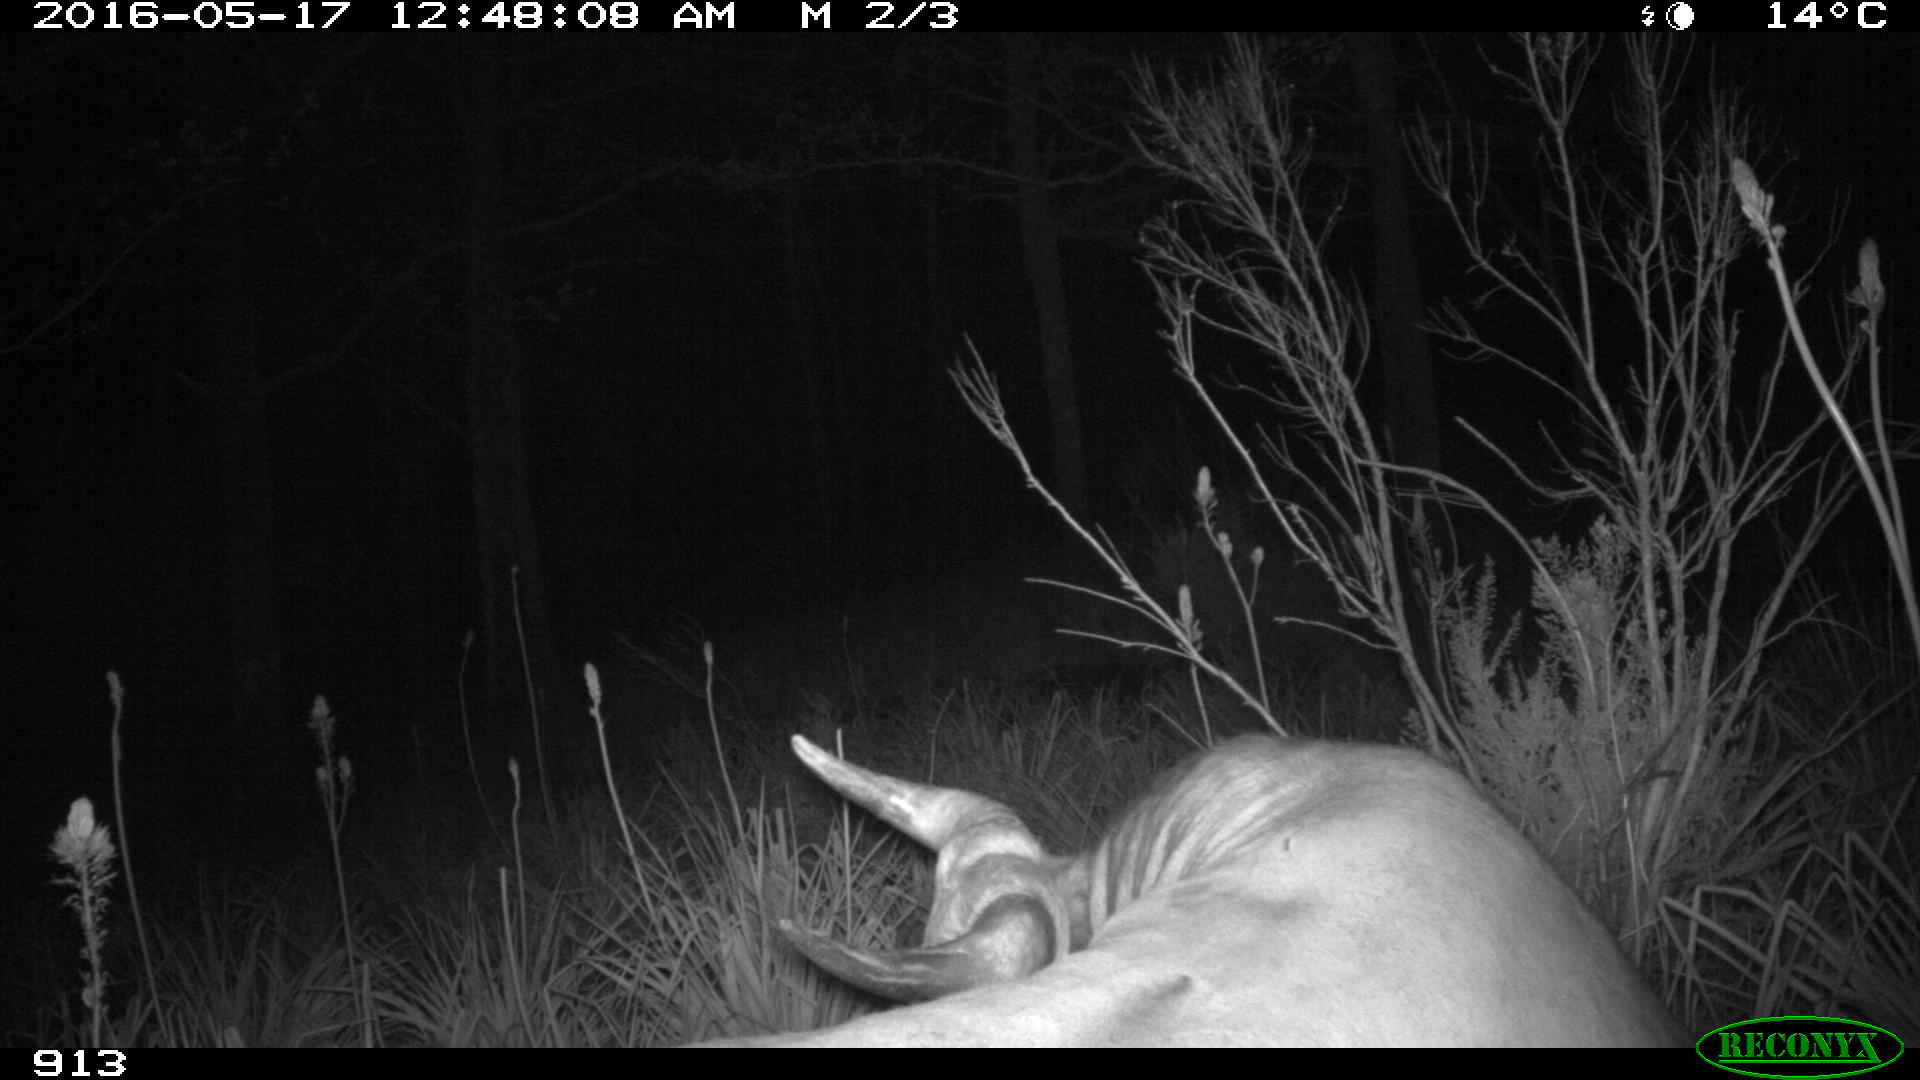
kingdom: Animalia
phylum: Chordata
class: Mammalia
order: Artiodactyla
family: Bovidae
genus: Bos
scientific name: Bos taurus
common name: Domesticated cattle
